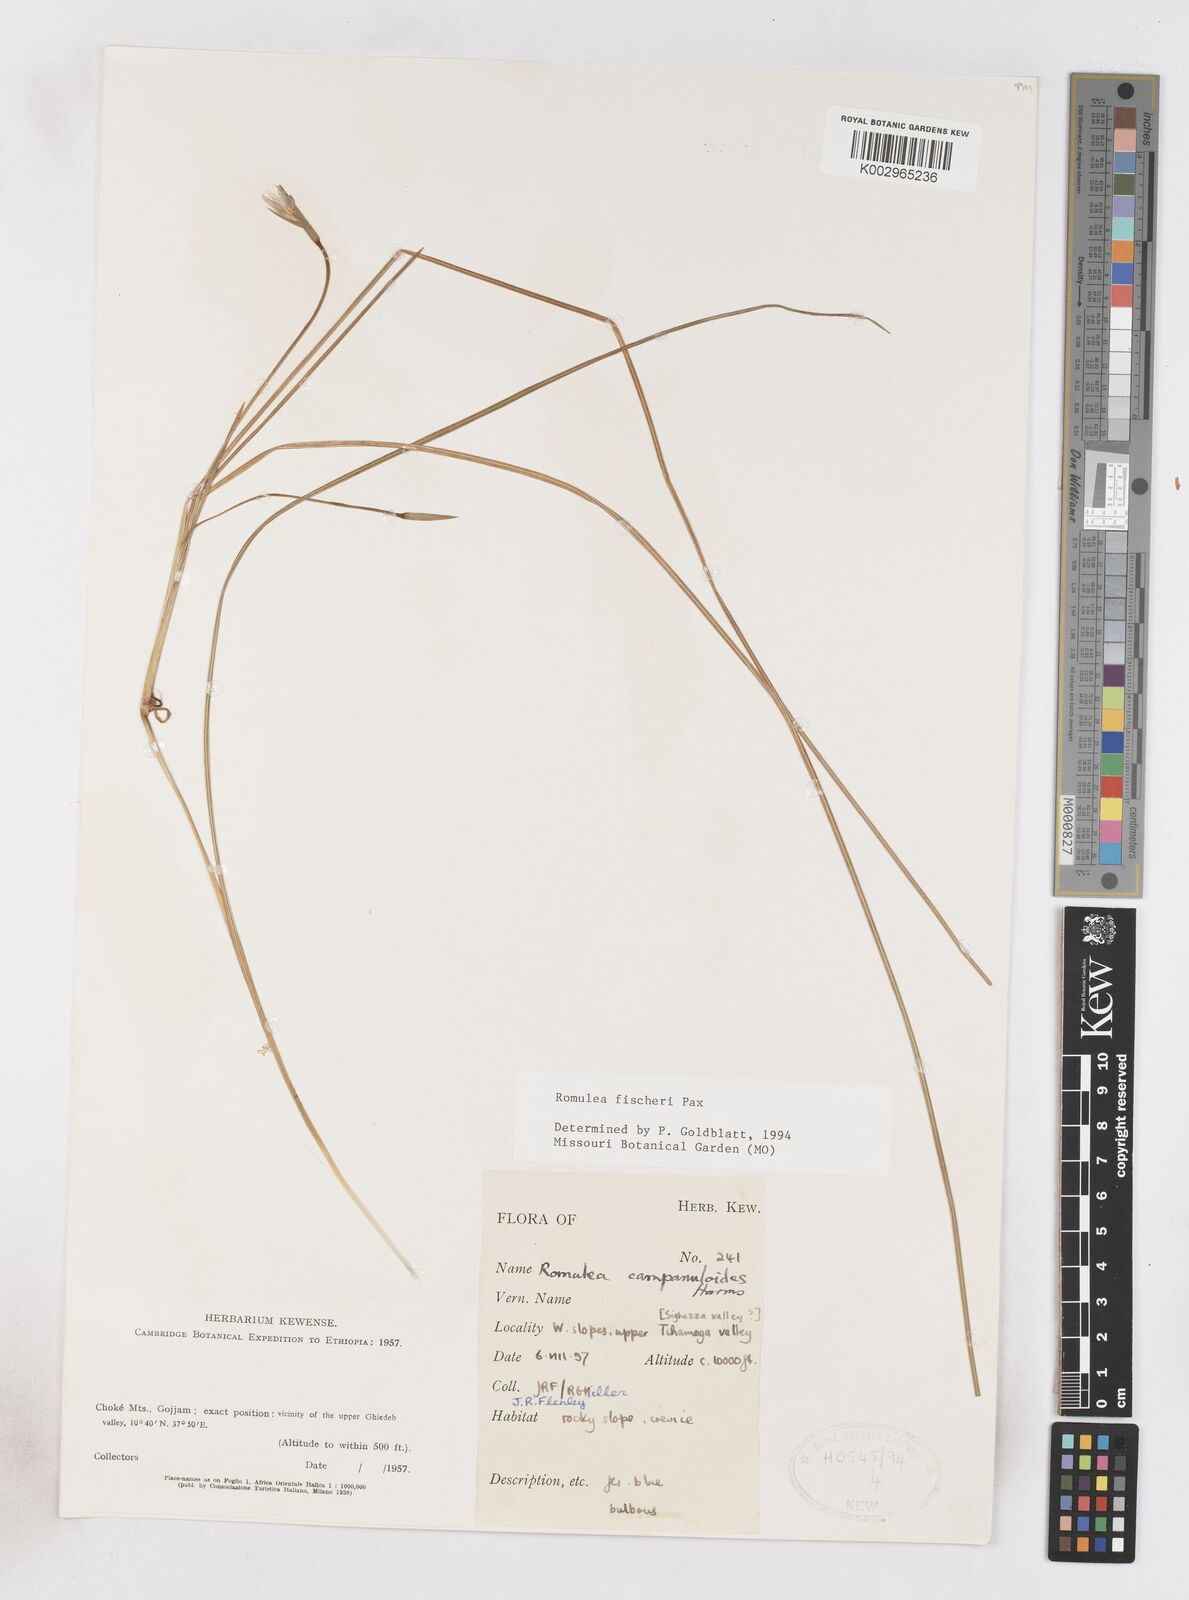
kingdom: Plantae
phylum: Tracheophyta
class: Liliopsida
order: Asparagales
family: Iridaceae
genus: Romulea
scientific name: Romulea fischeri
